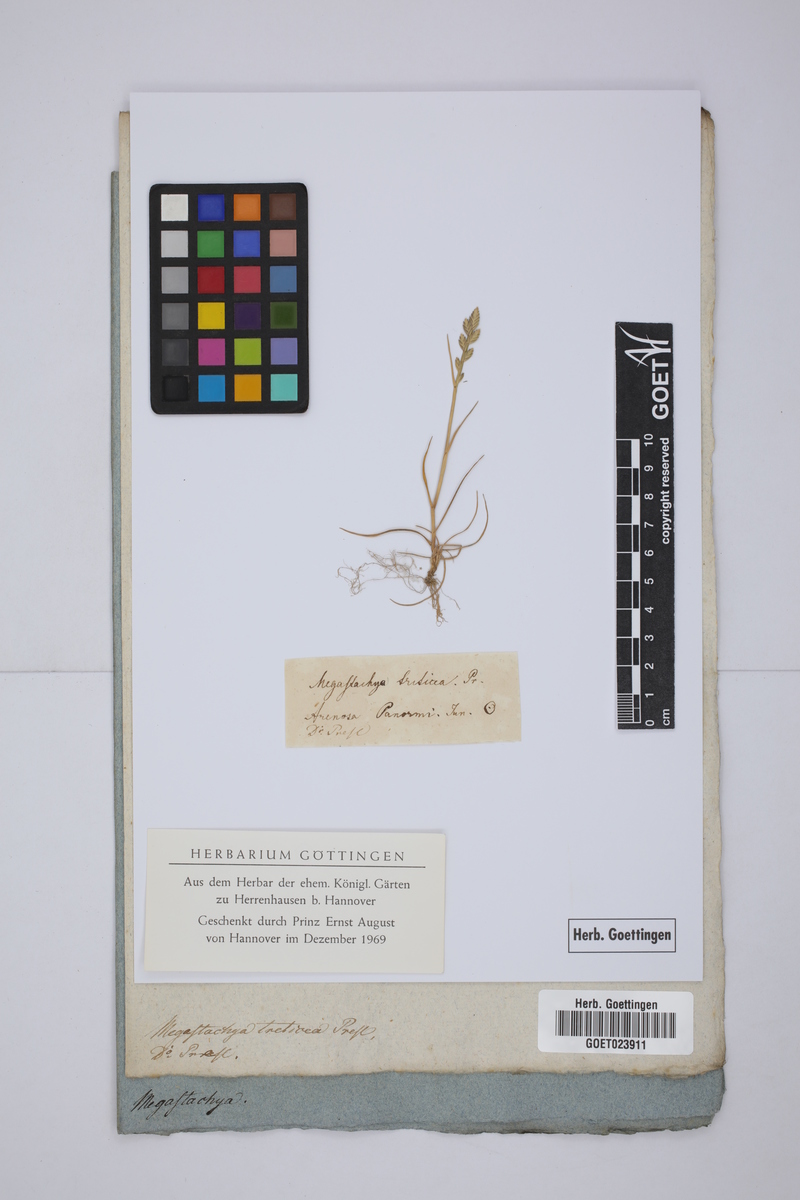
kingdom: Plantae
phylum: Tracheophyta
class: Liliopsida
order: Poales
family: Poaceae
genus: Eragrostis
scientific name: Eragrostis cilianensis
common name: Stinkgrass
